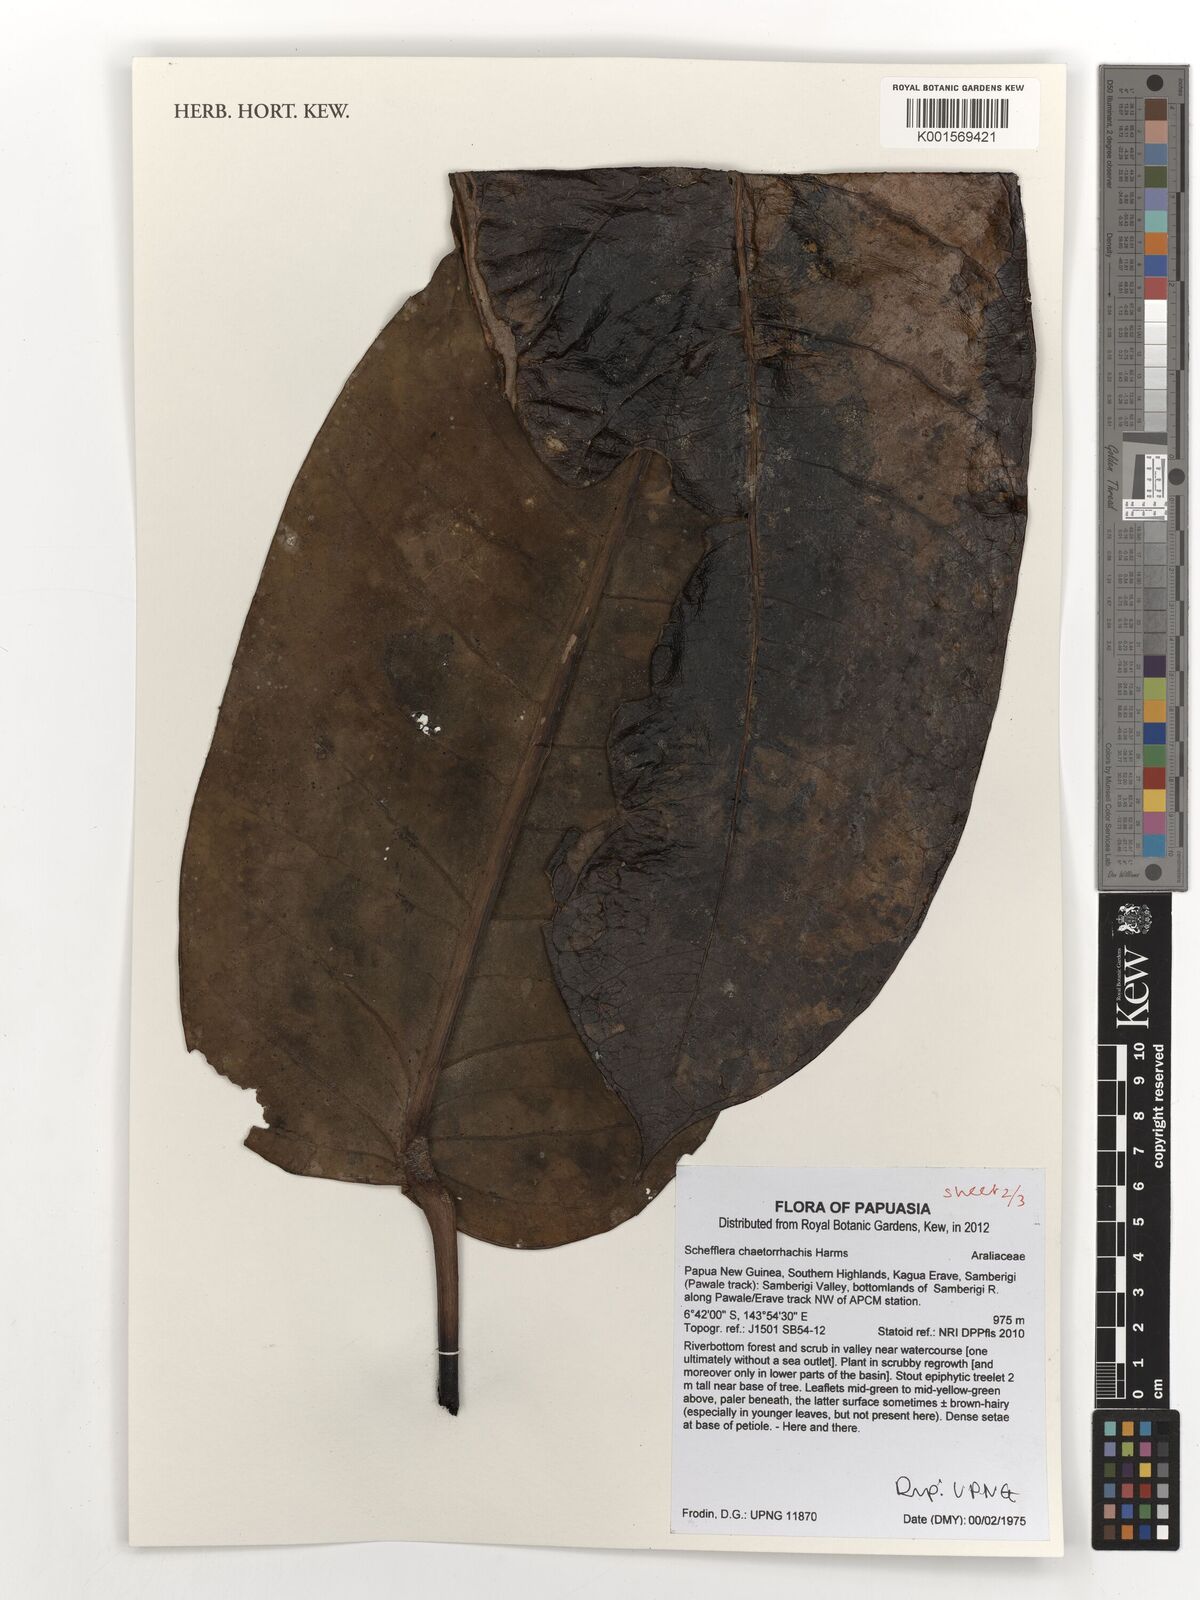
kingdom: Plantae
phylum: Tracheophyta
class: Magnoliopsida
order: Apiales
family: Araliaceae
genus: Heptapleurum
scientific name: Heptapleurum chaetorrhachis
